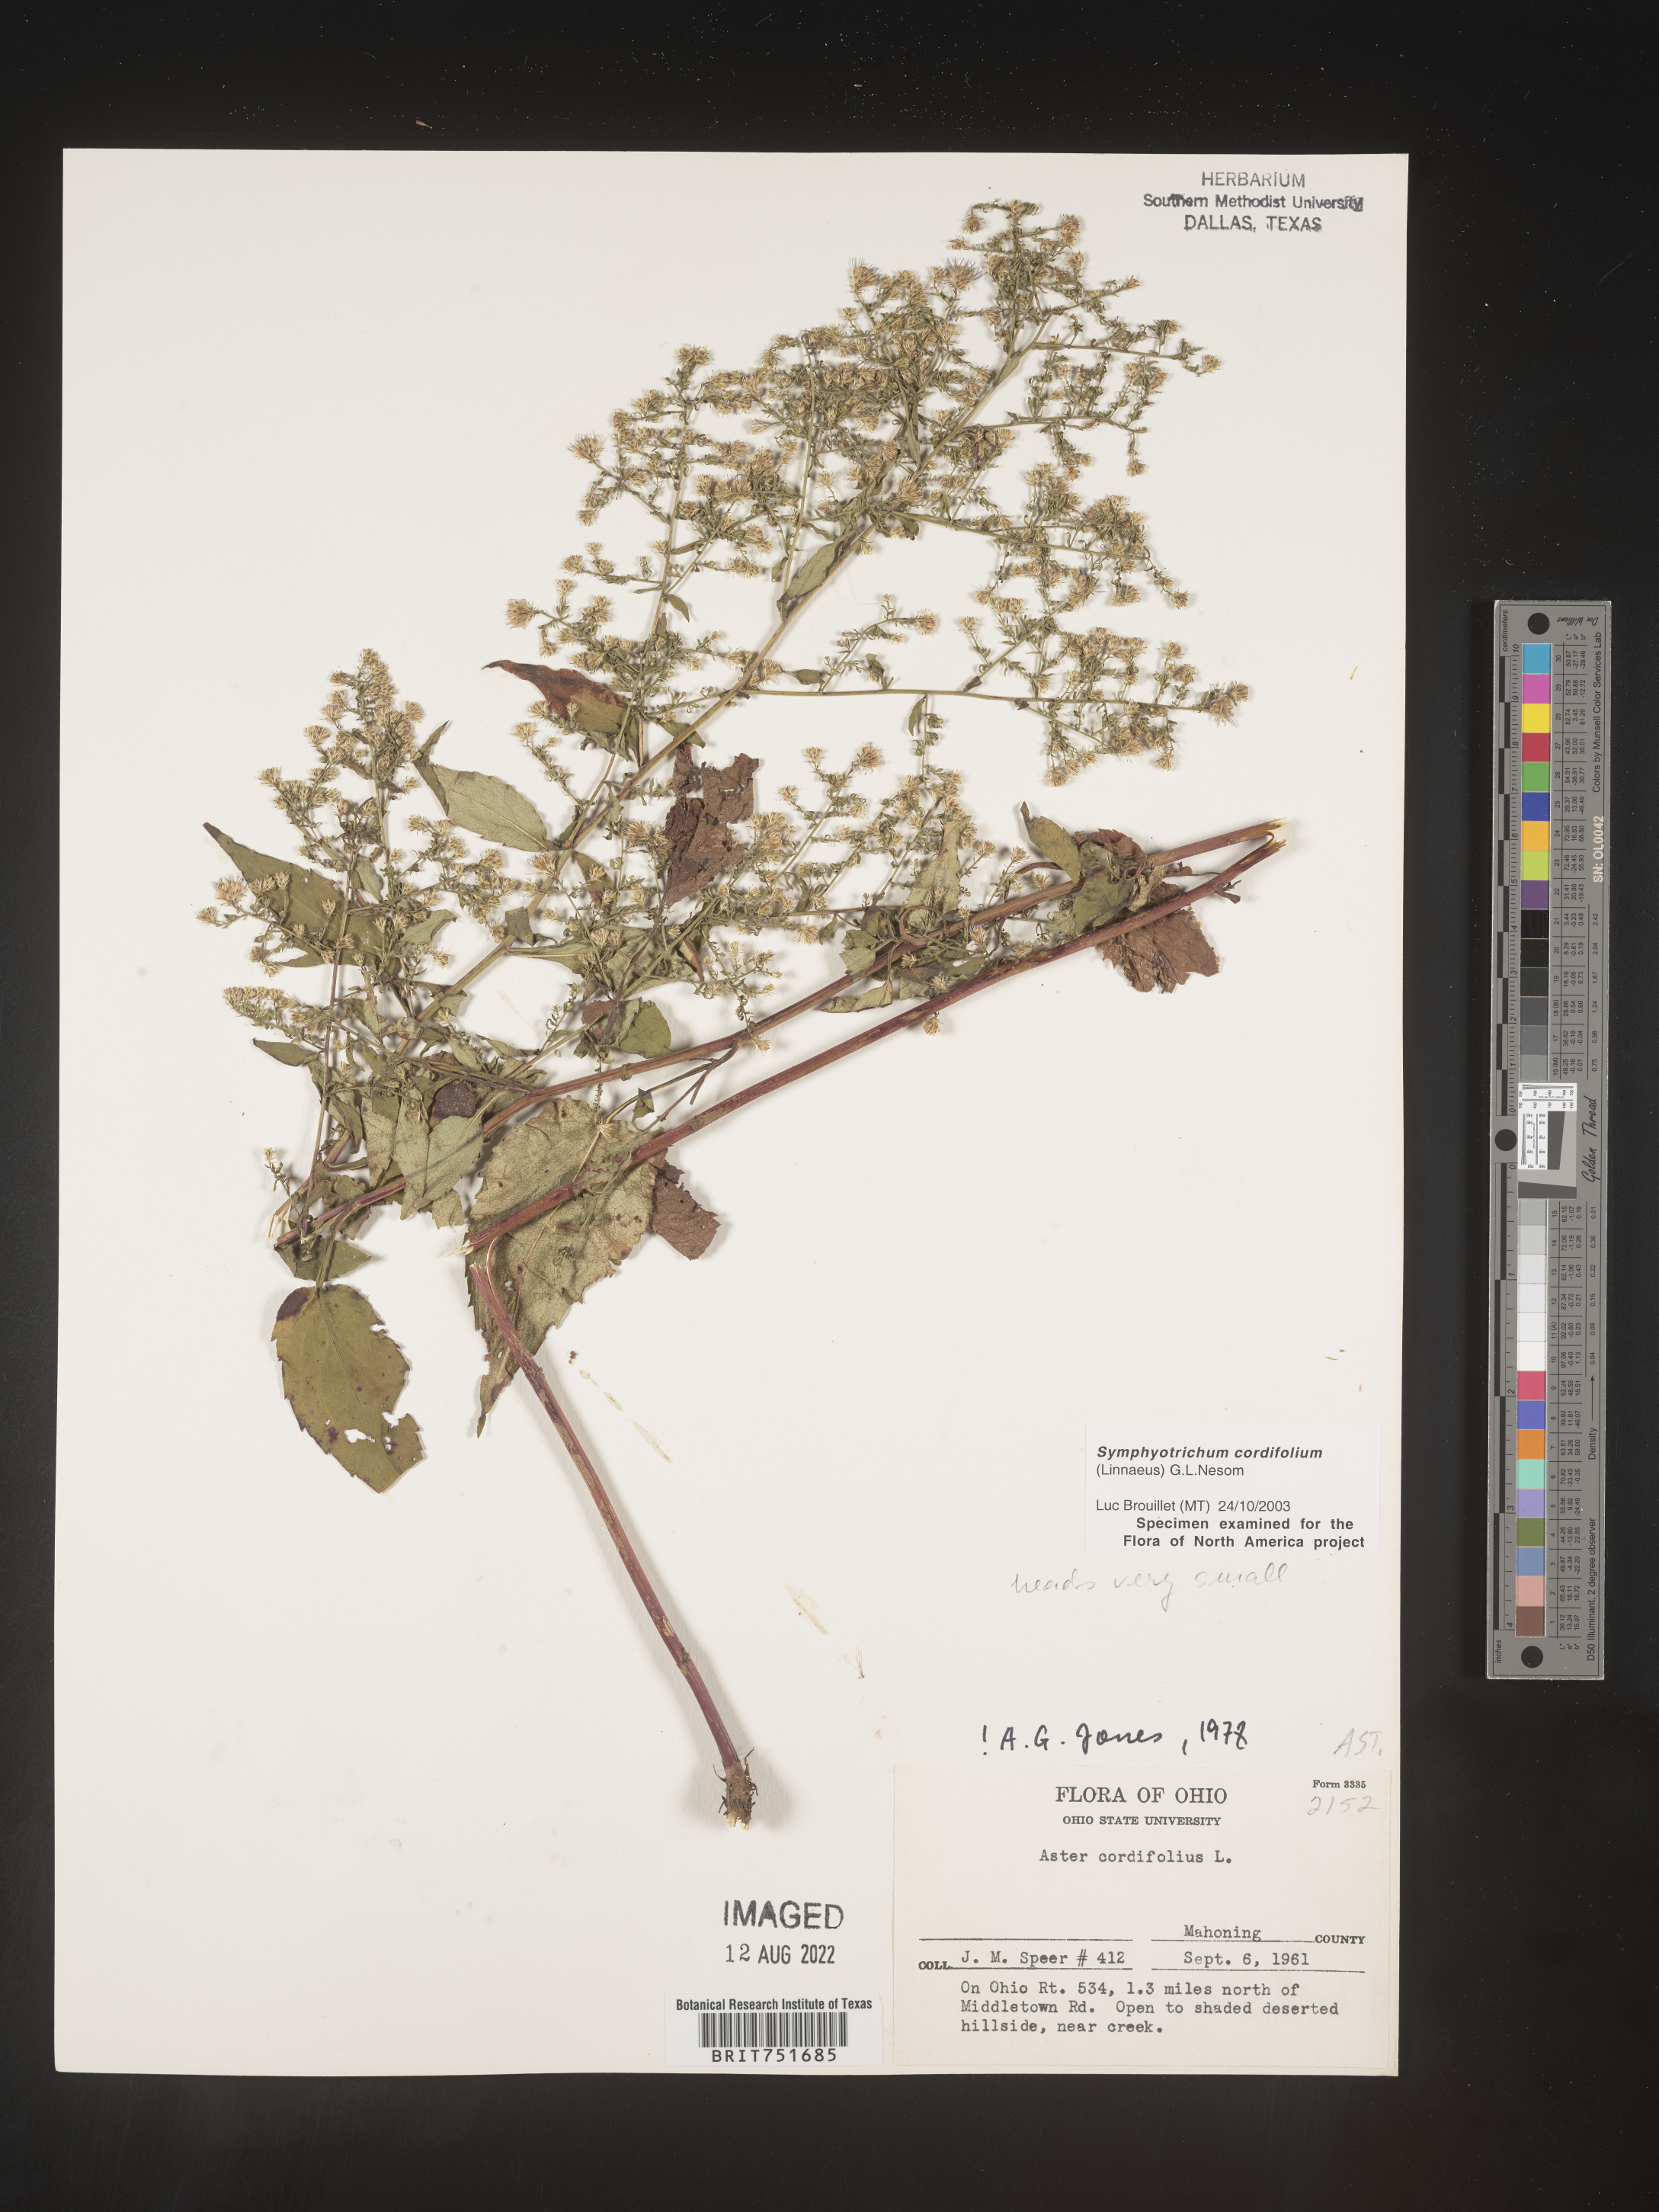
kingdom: Plantae
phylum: Tracheophyta
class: Magnoliopsida
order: Asterales
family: Asteraceae
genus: Symphyotrichum
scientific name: Symphyotrichum cordifolium
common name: Beeweed
